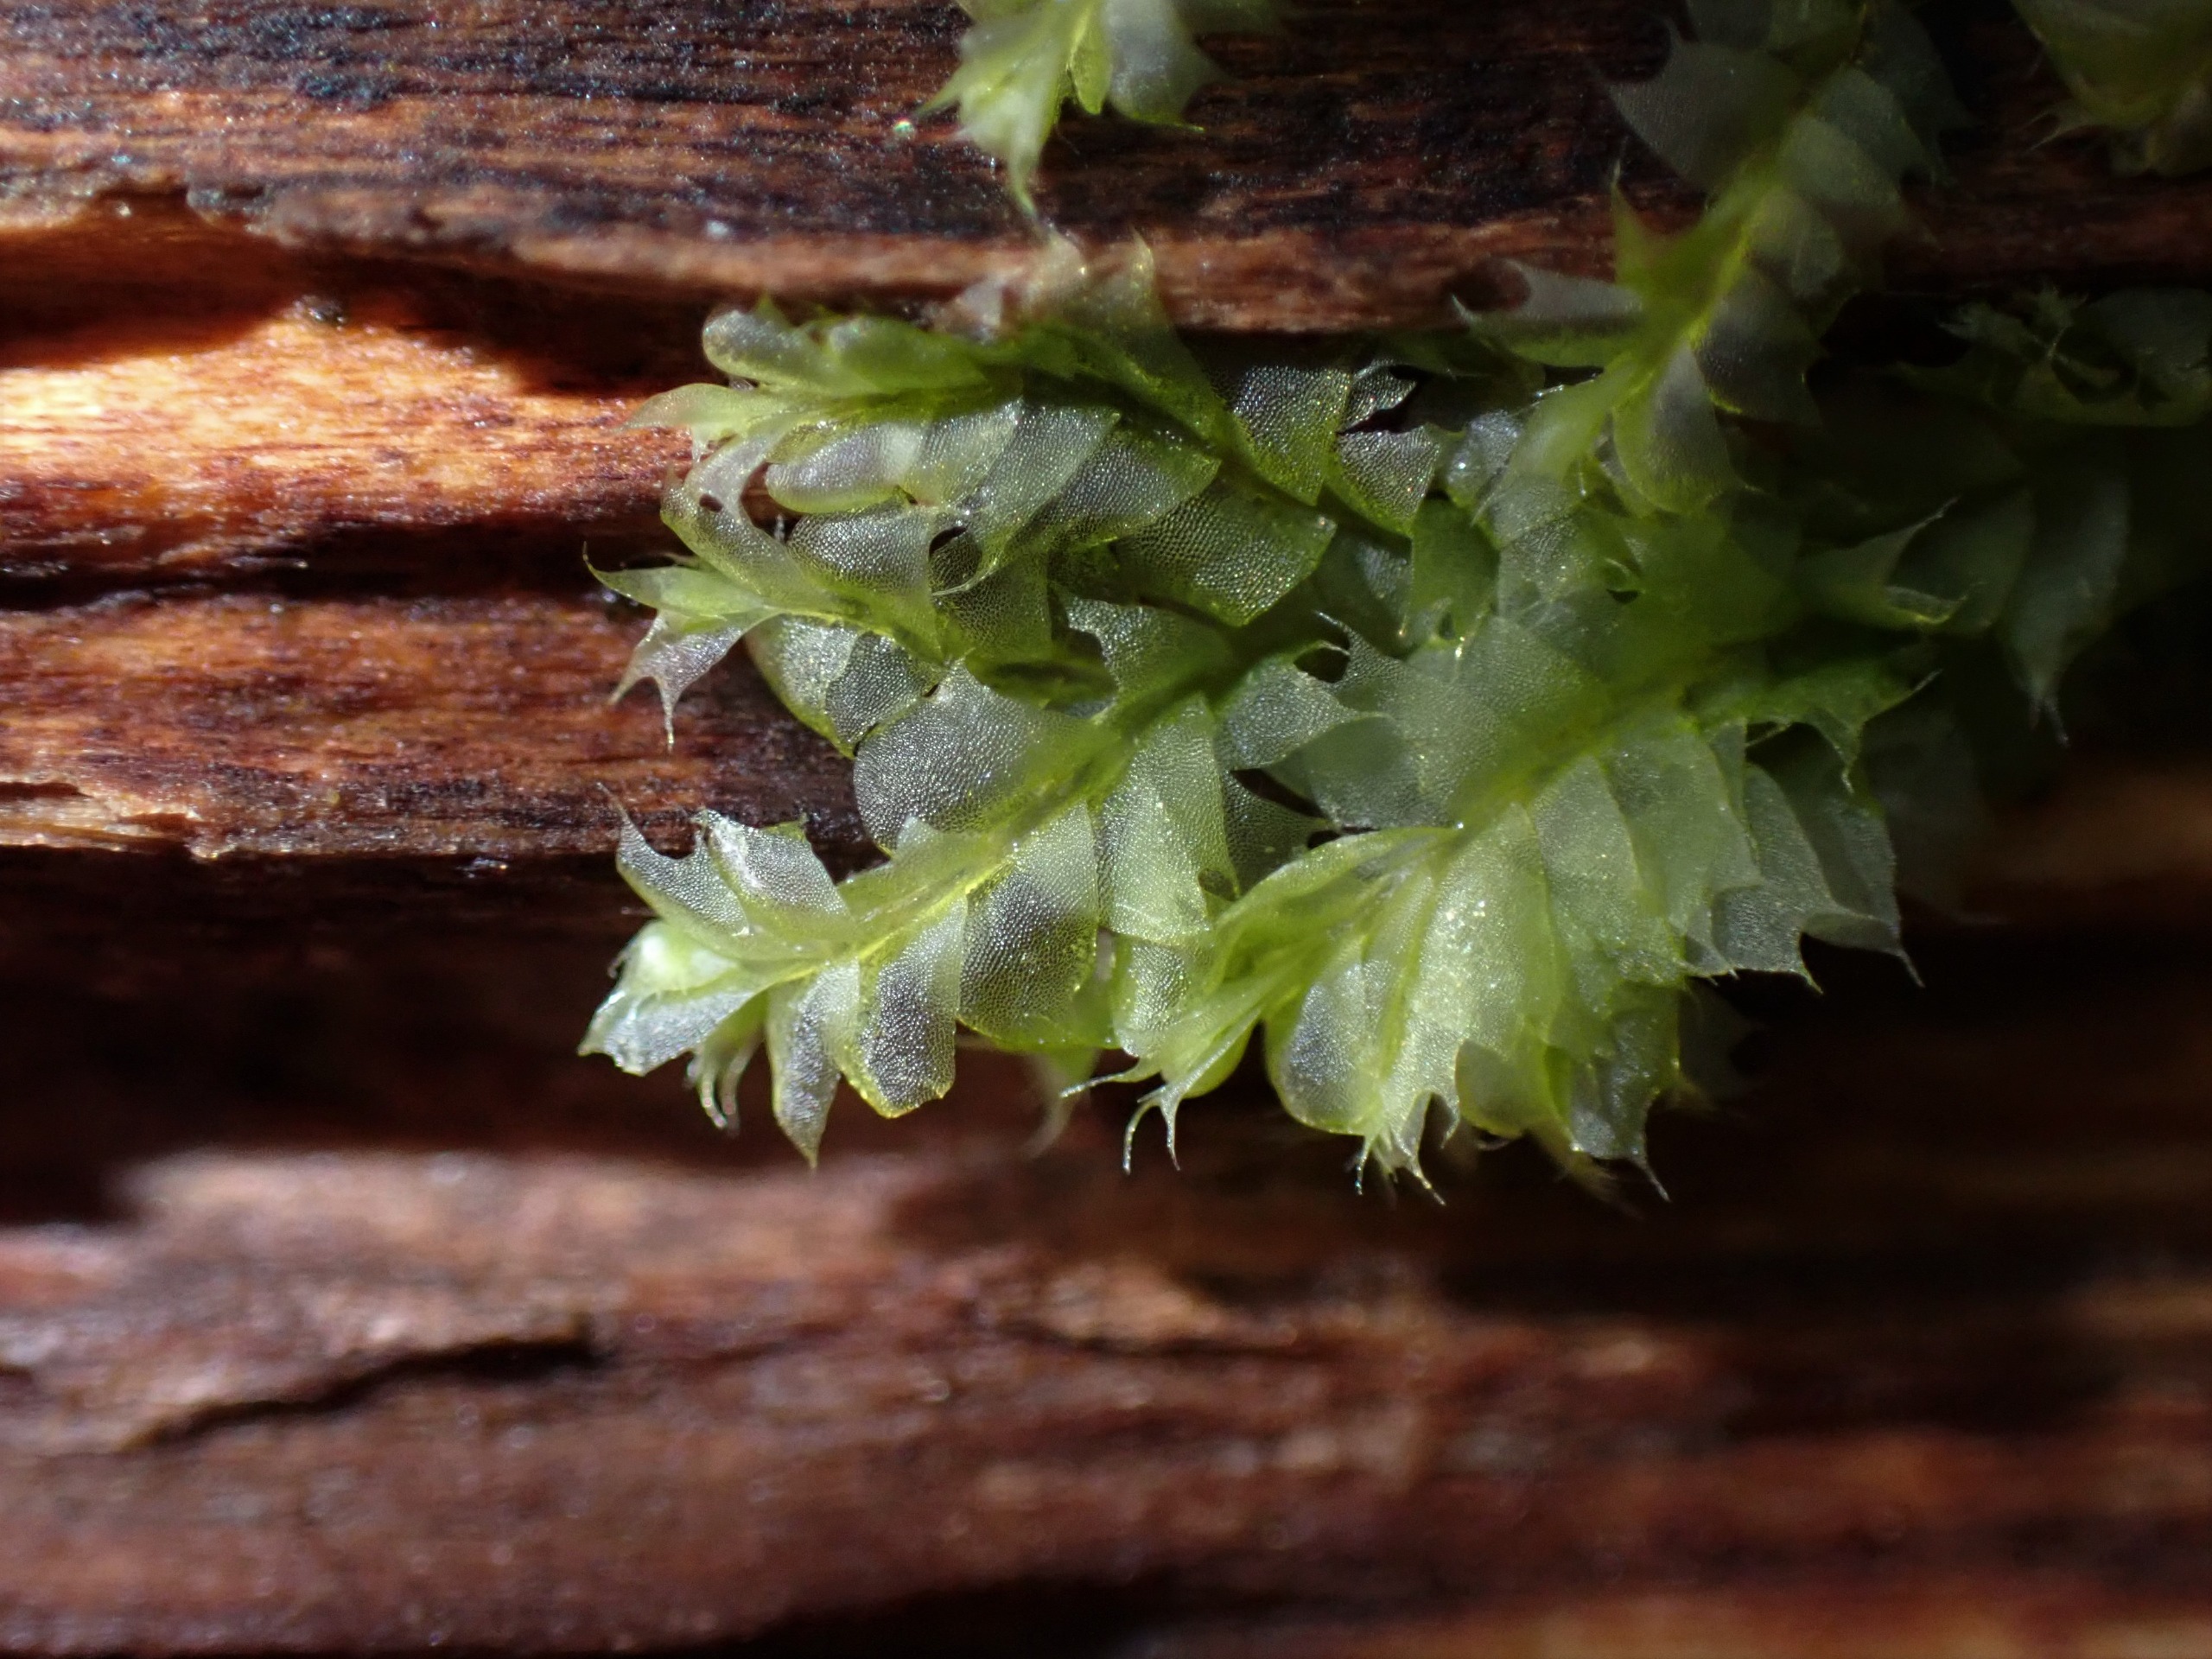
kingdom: Plantae
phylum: Marchantiophyta
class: Jungermanniopsida
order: Jungermanniales
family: Lophocoleaceae
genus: Lophocolea
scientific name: Lophocolea bidentata
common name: Sylspidset kamsvøb
